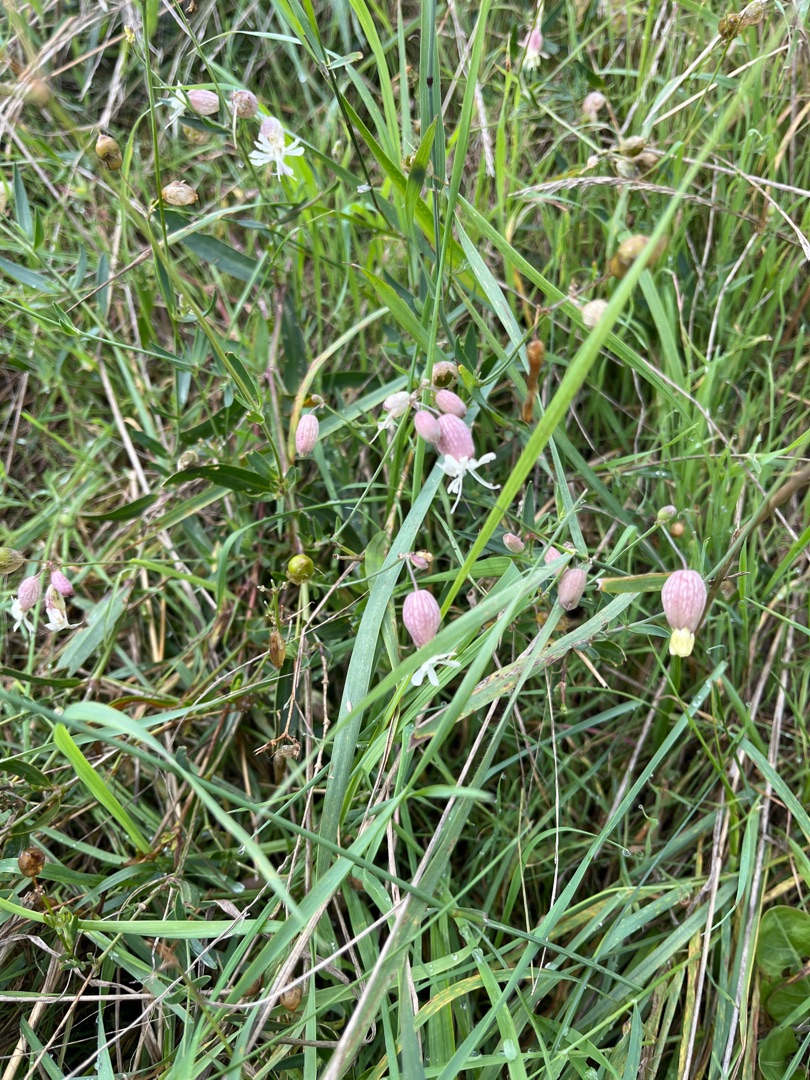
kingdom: Plantae
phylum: Tracheophyta
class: Magnoliopsida
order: Caryophyllales
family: Caryophyllaceae
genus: Silene
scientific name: Silene vulgaris
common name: Blæresmælde
